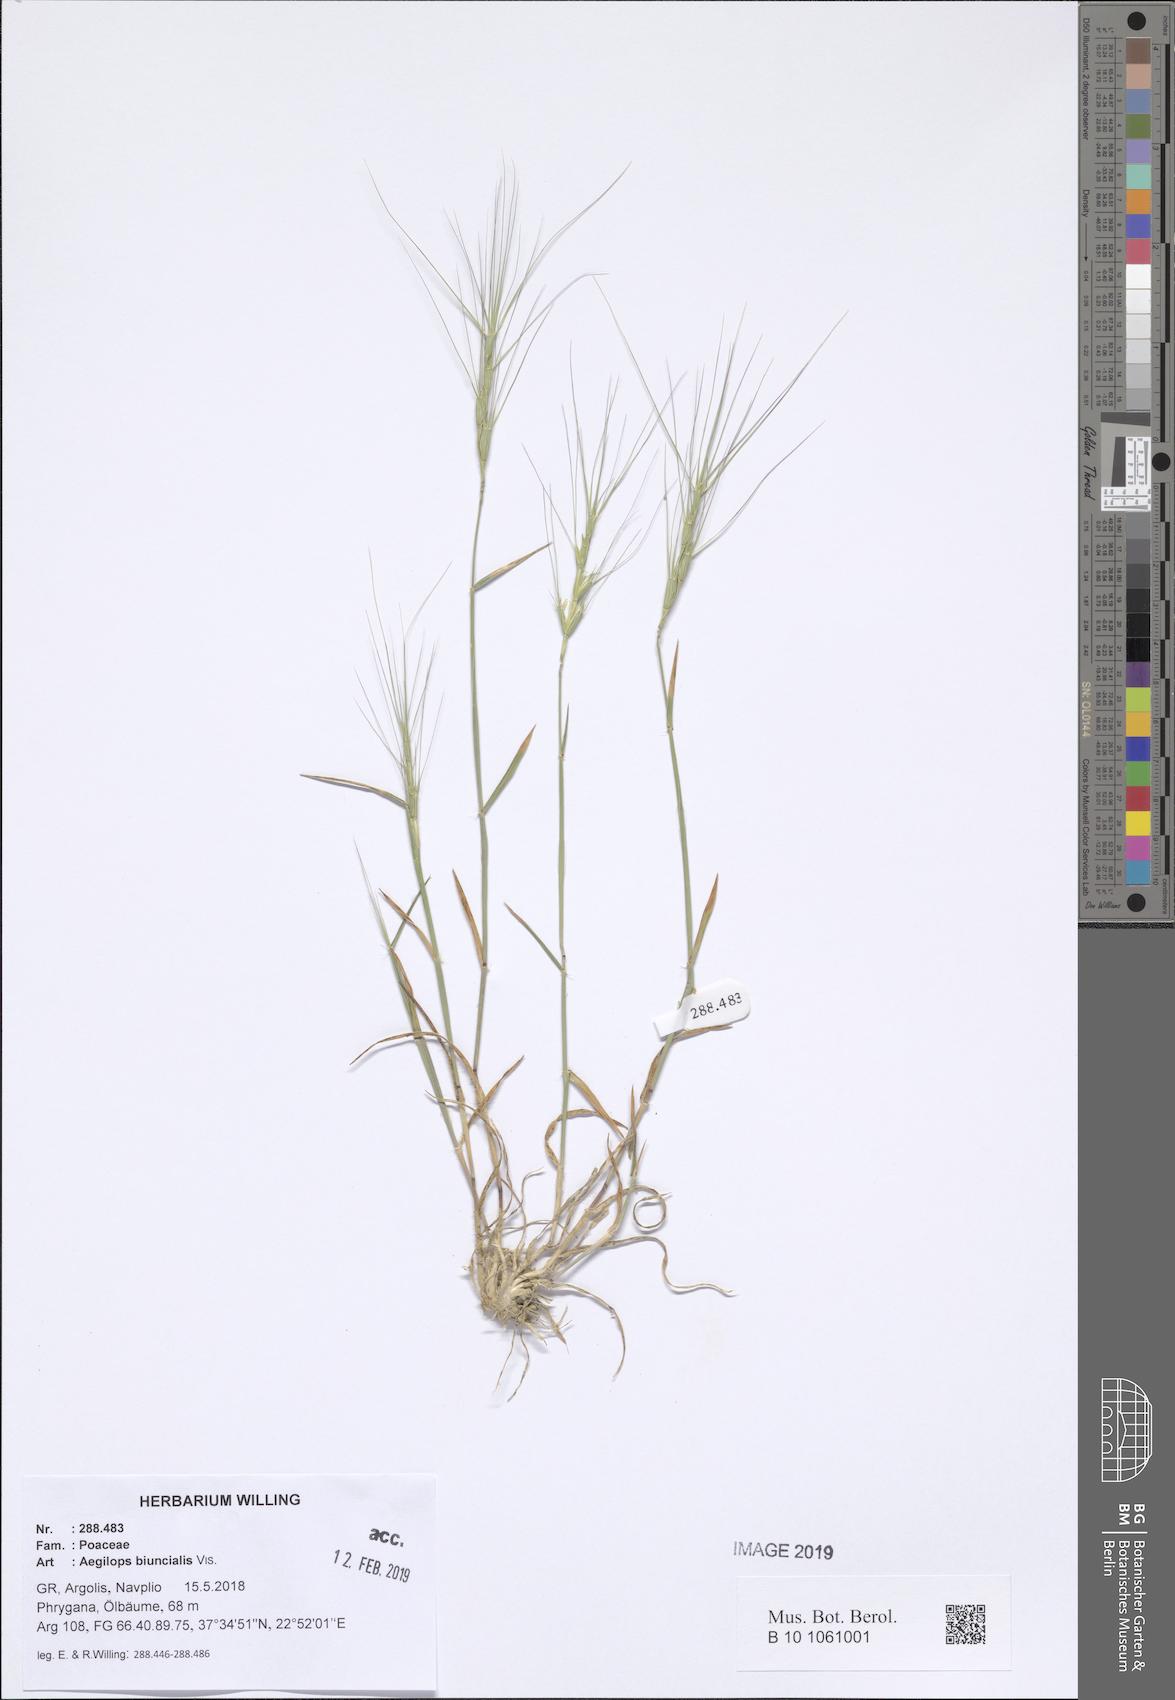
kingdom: Plantae
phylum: Tracheophyta
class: Liliopsida
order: Poales
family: Poaceae
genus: Aegilops
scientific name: Aegilops biuncialis
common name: Mediterranean aegilops
